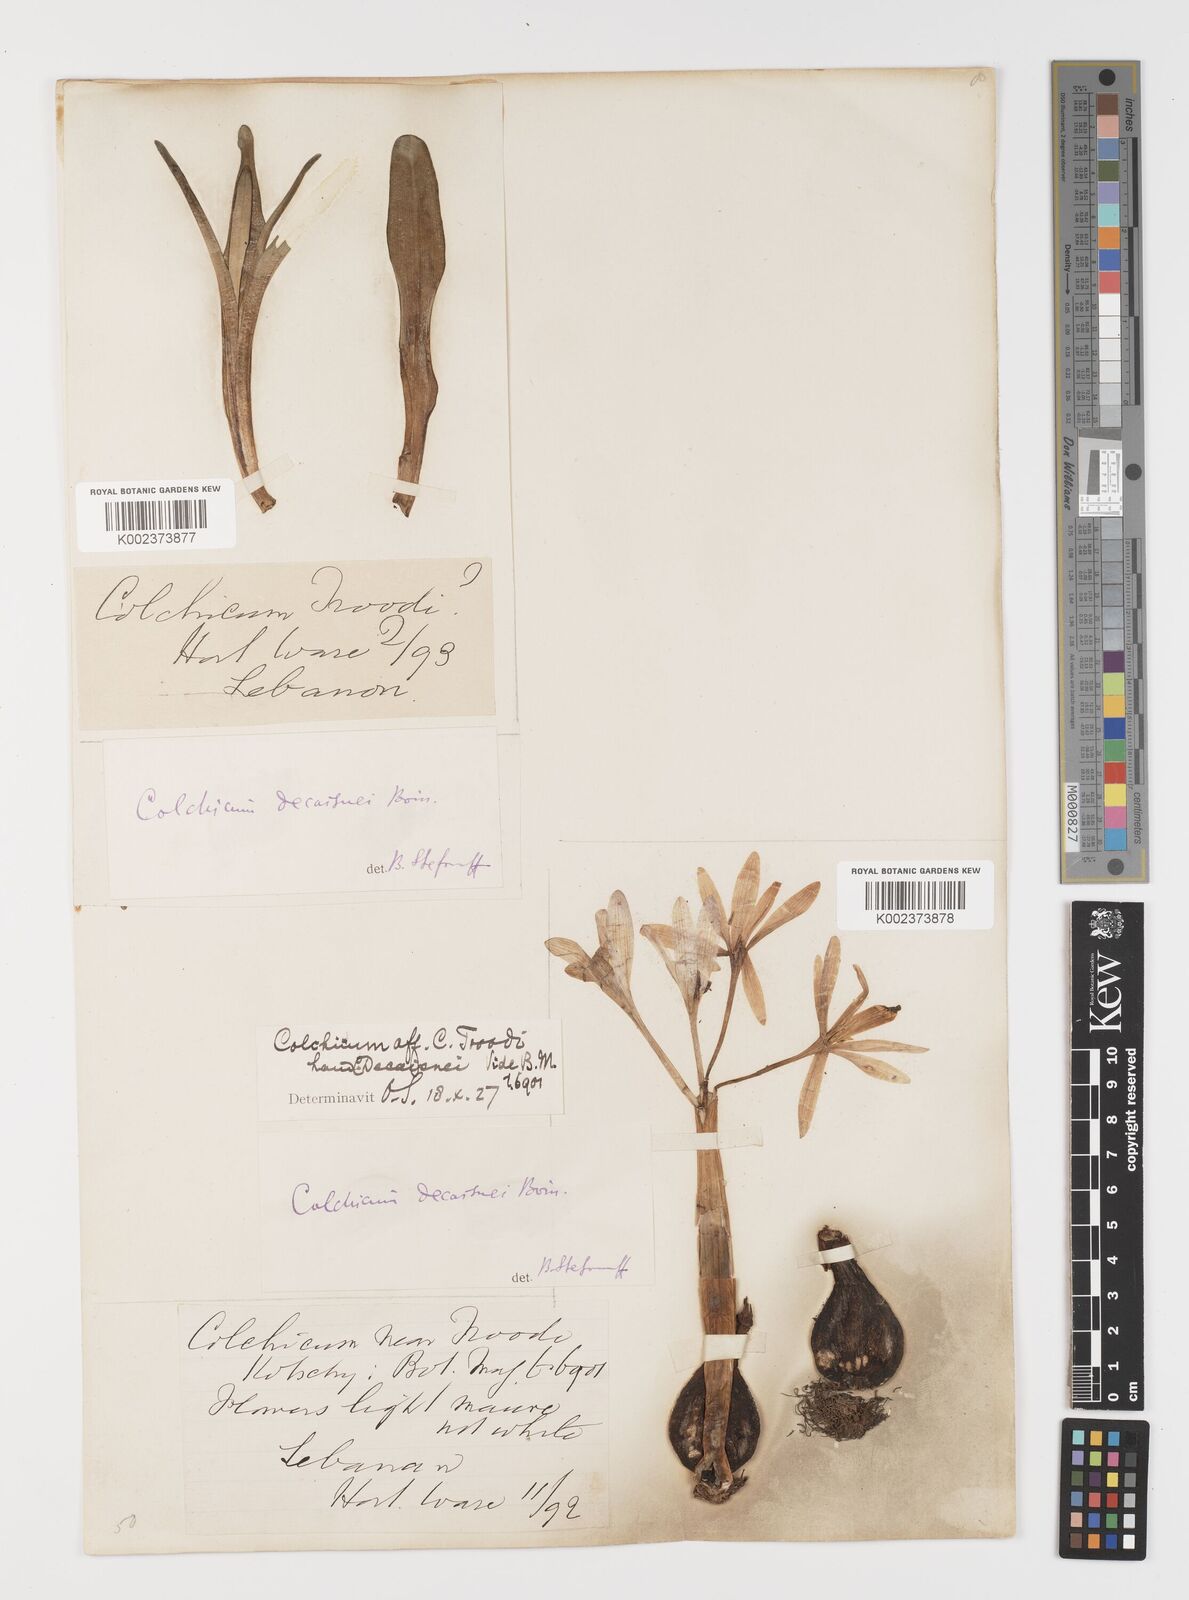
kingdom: Plantae
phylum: Tracheophyta
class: Liliopsida
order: Liliales
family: Colchicaceae
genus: Colchicum
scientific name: Colchicum decaisnei
